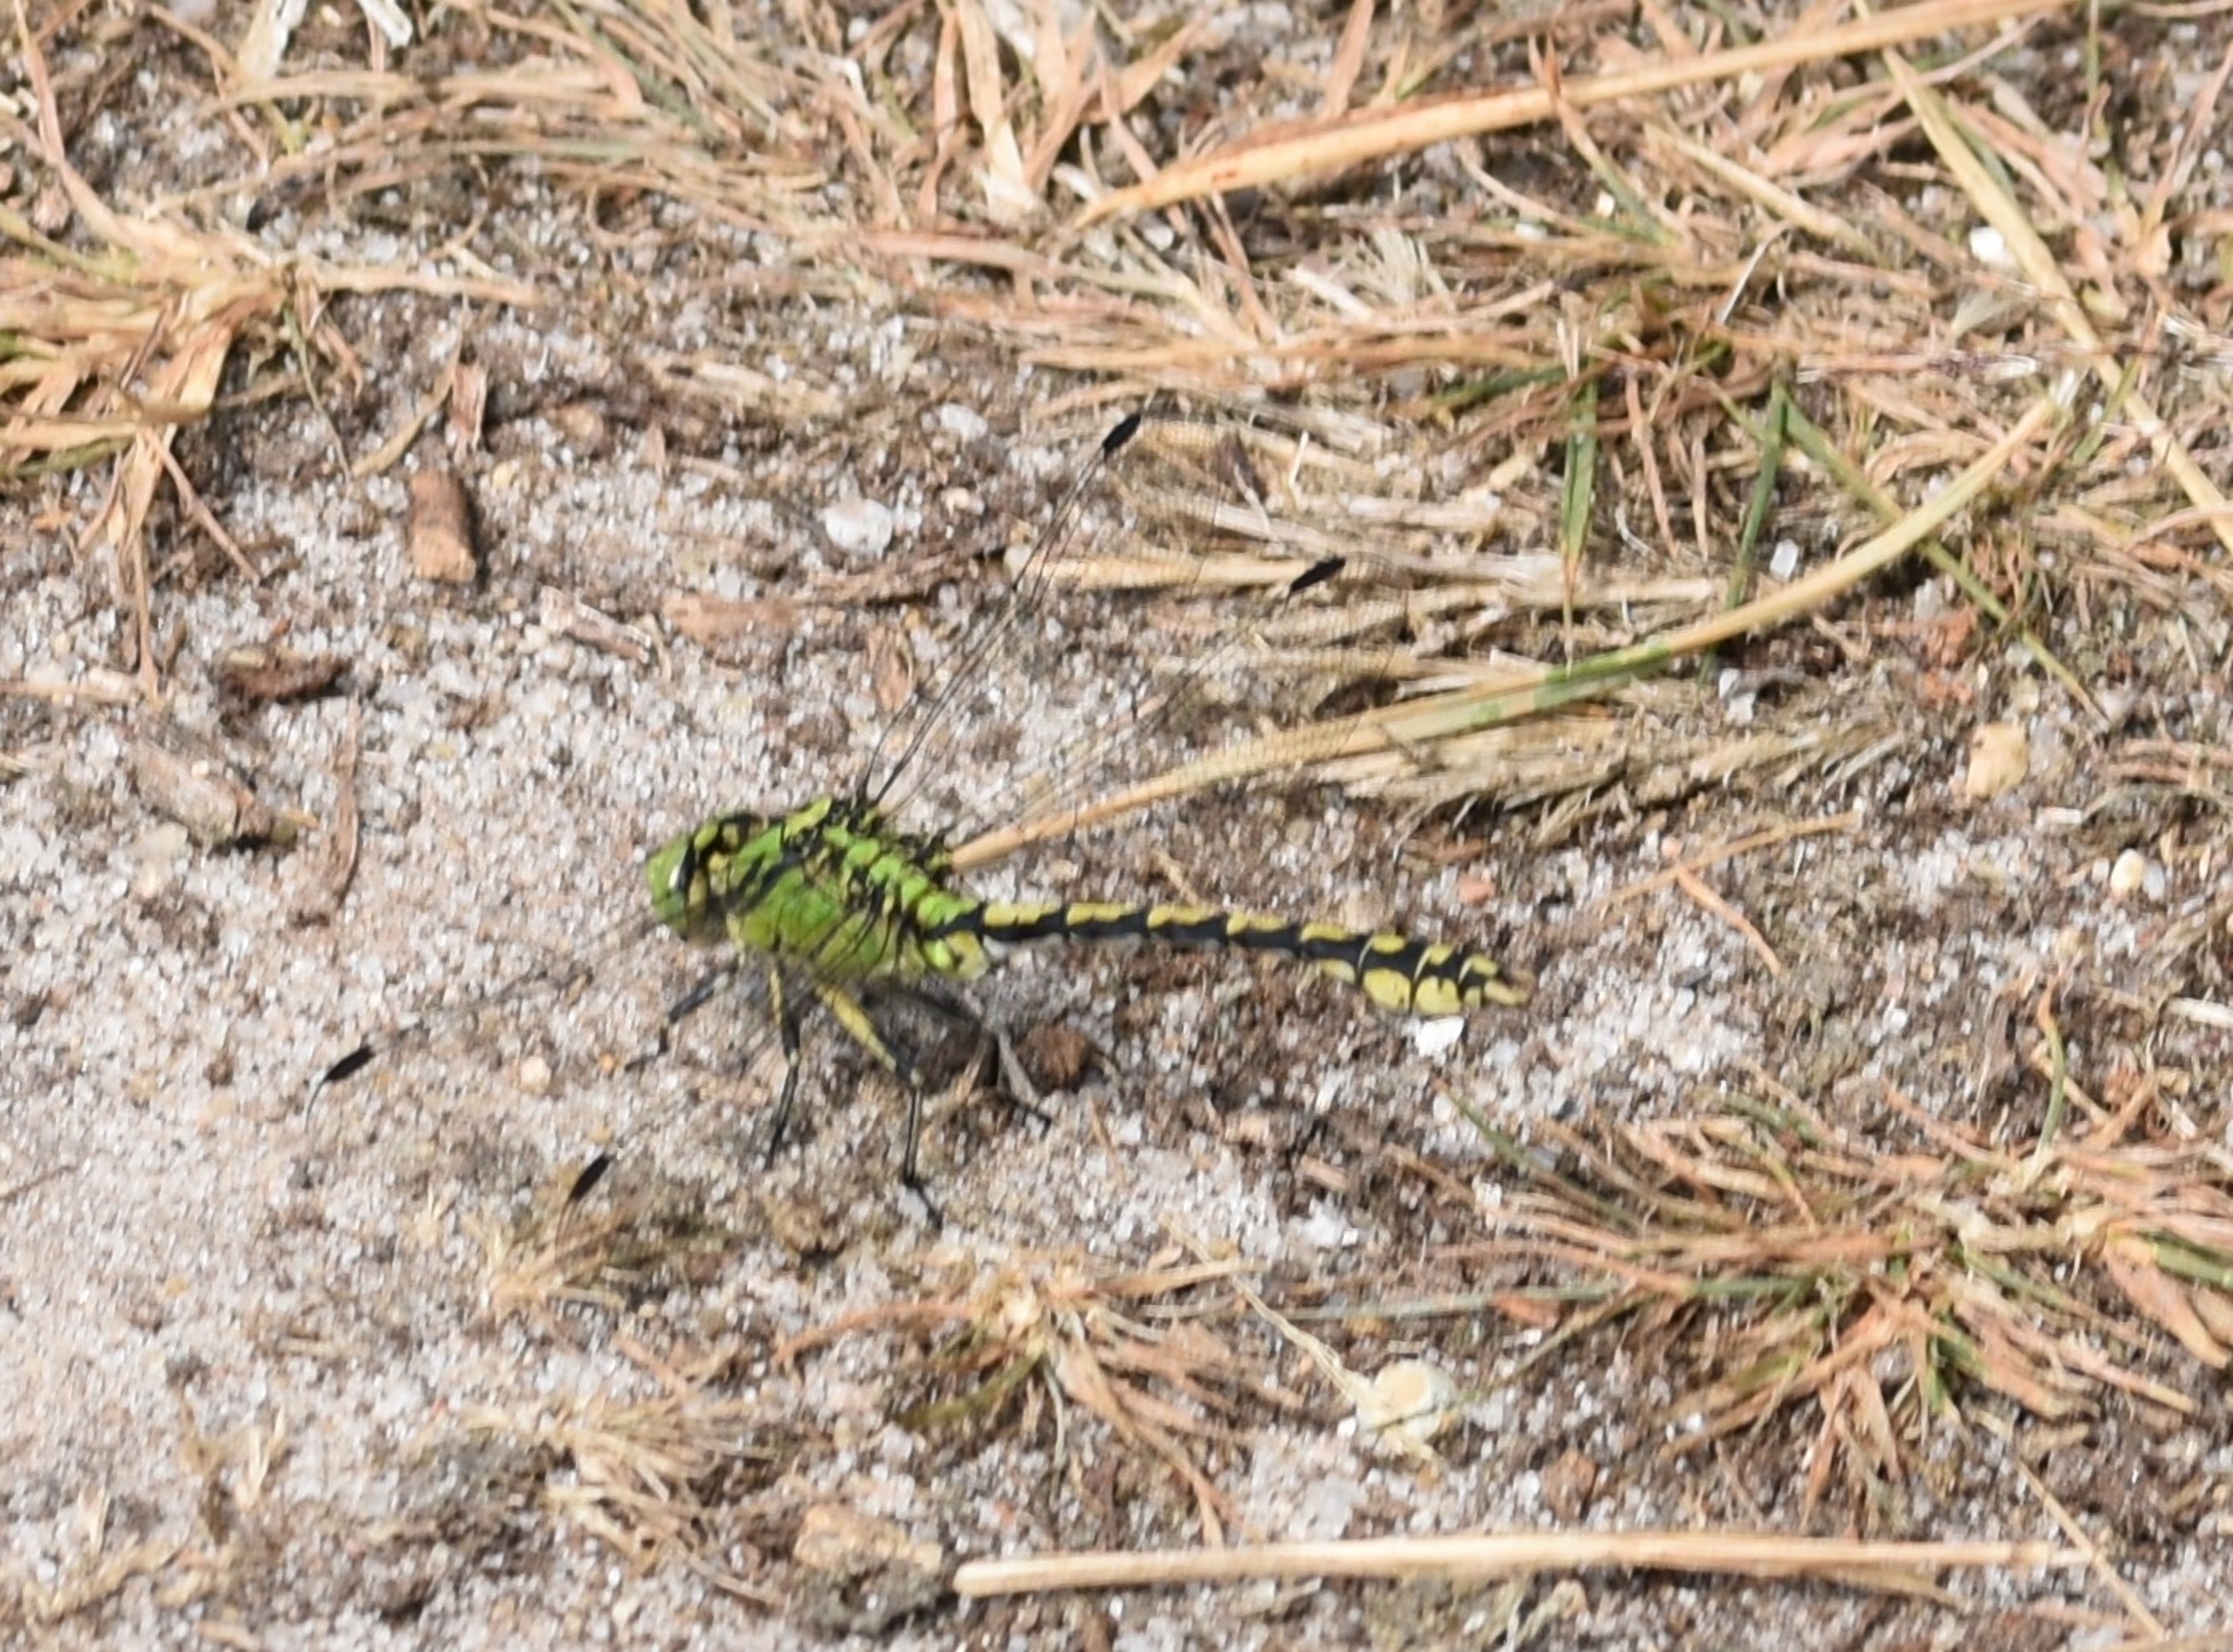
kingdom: Animalia
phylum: Arthropoda
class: Insecta
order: Odonata
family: Gomphidae
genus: Ophiogomphus
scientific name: Ophiogomphus cecilia
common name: Grøn kølleguldsmed
